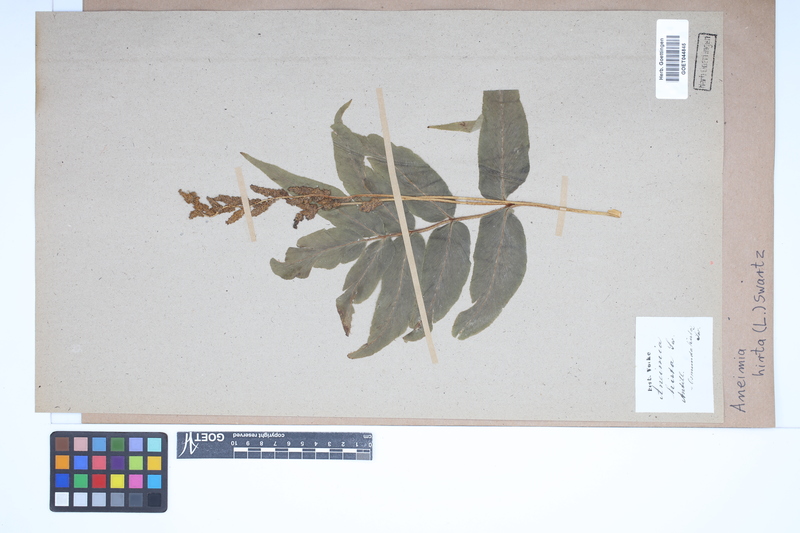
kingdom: Plantae
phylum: Tracheophyta
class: Polypodiopsida
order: Schizaeales
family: Anemiaceae
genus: Anemia
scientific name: Anemia hirta
